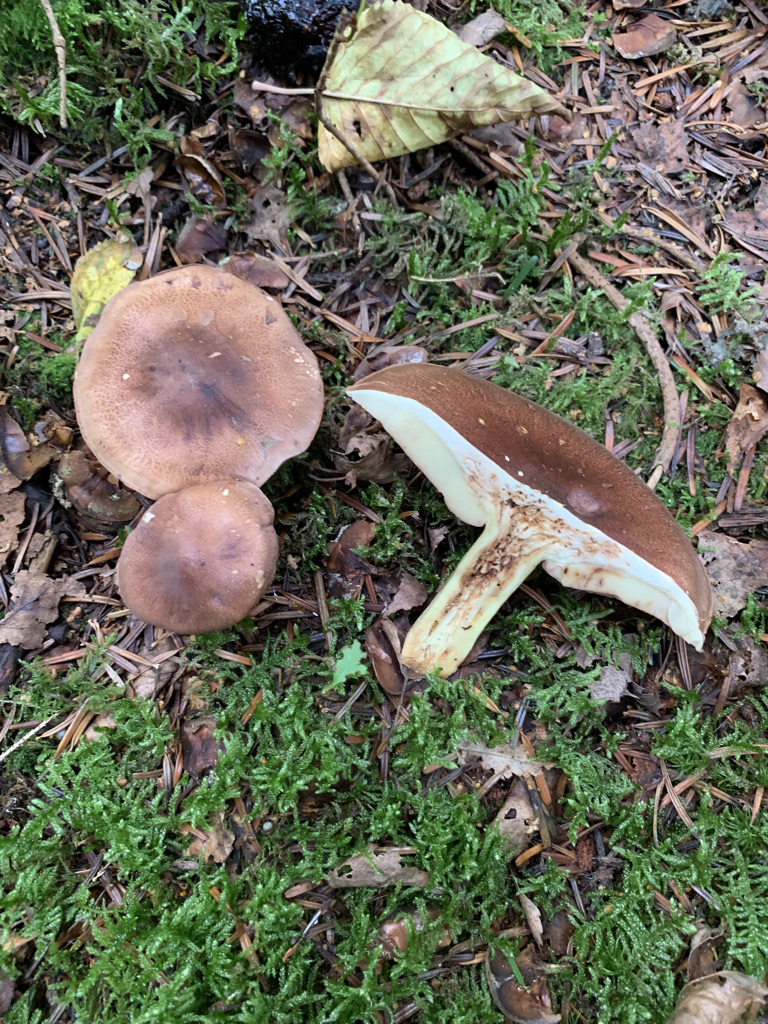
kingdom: Fungi
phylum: Basidiomycota
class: Agaricomycetes
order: Agaricales
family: Tricholomataceae
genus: Tricholoma
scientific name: Tricholoma fulvum
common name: birke-ridderhat
